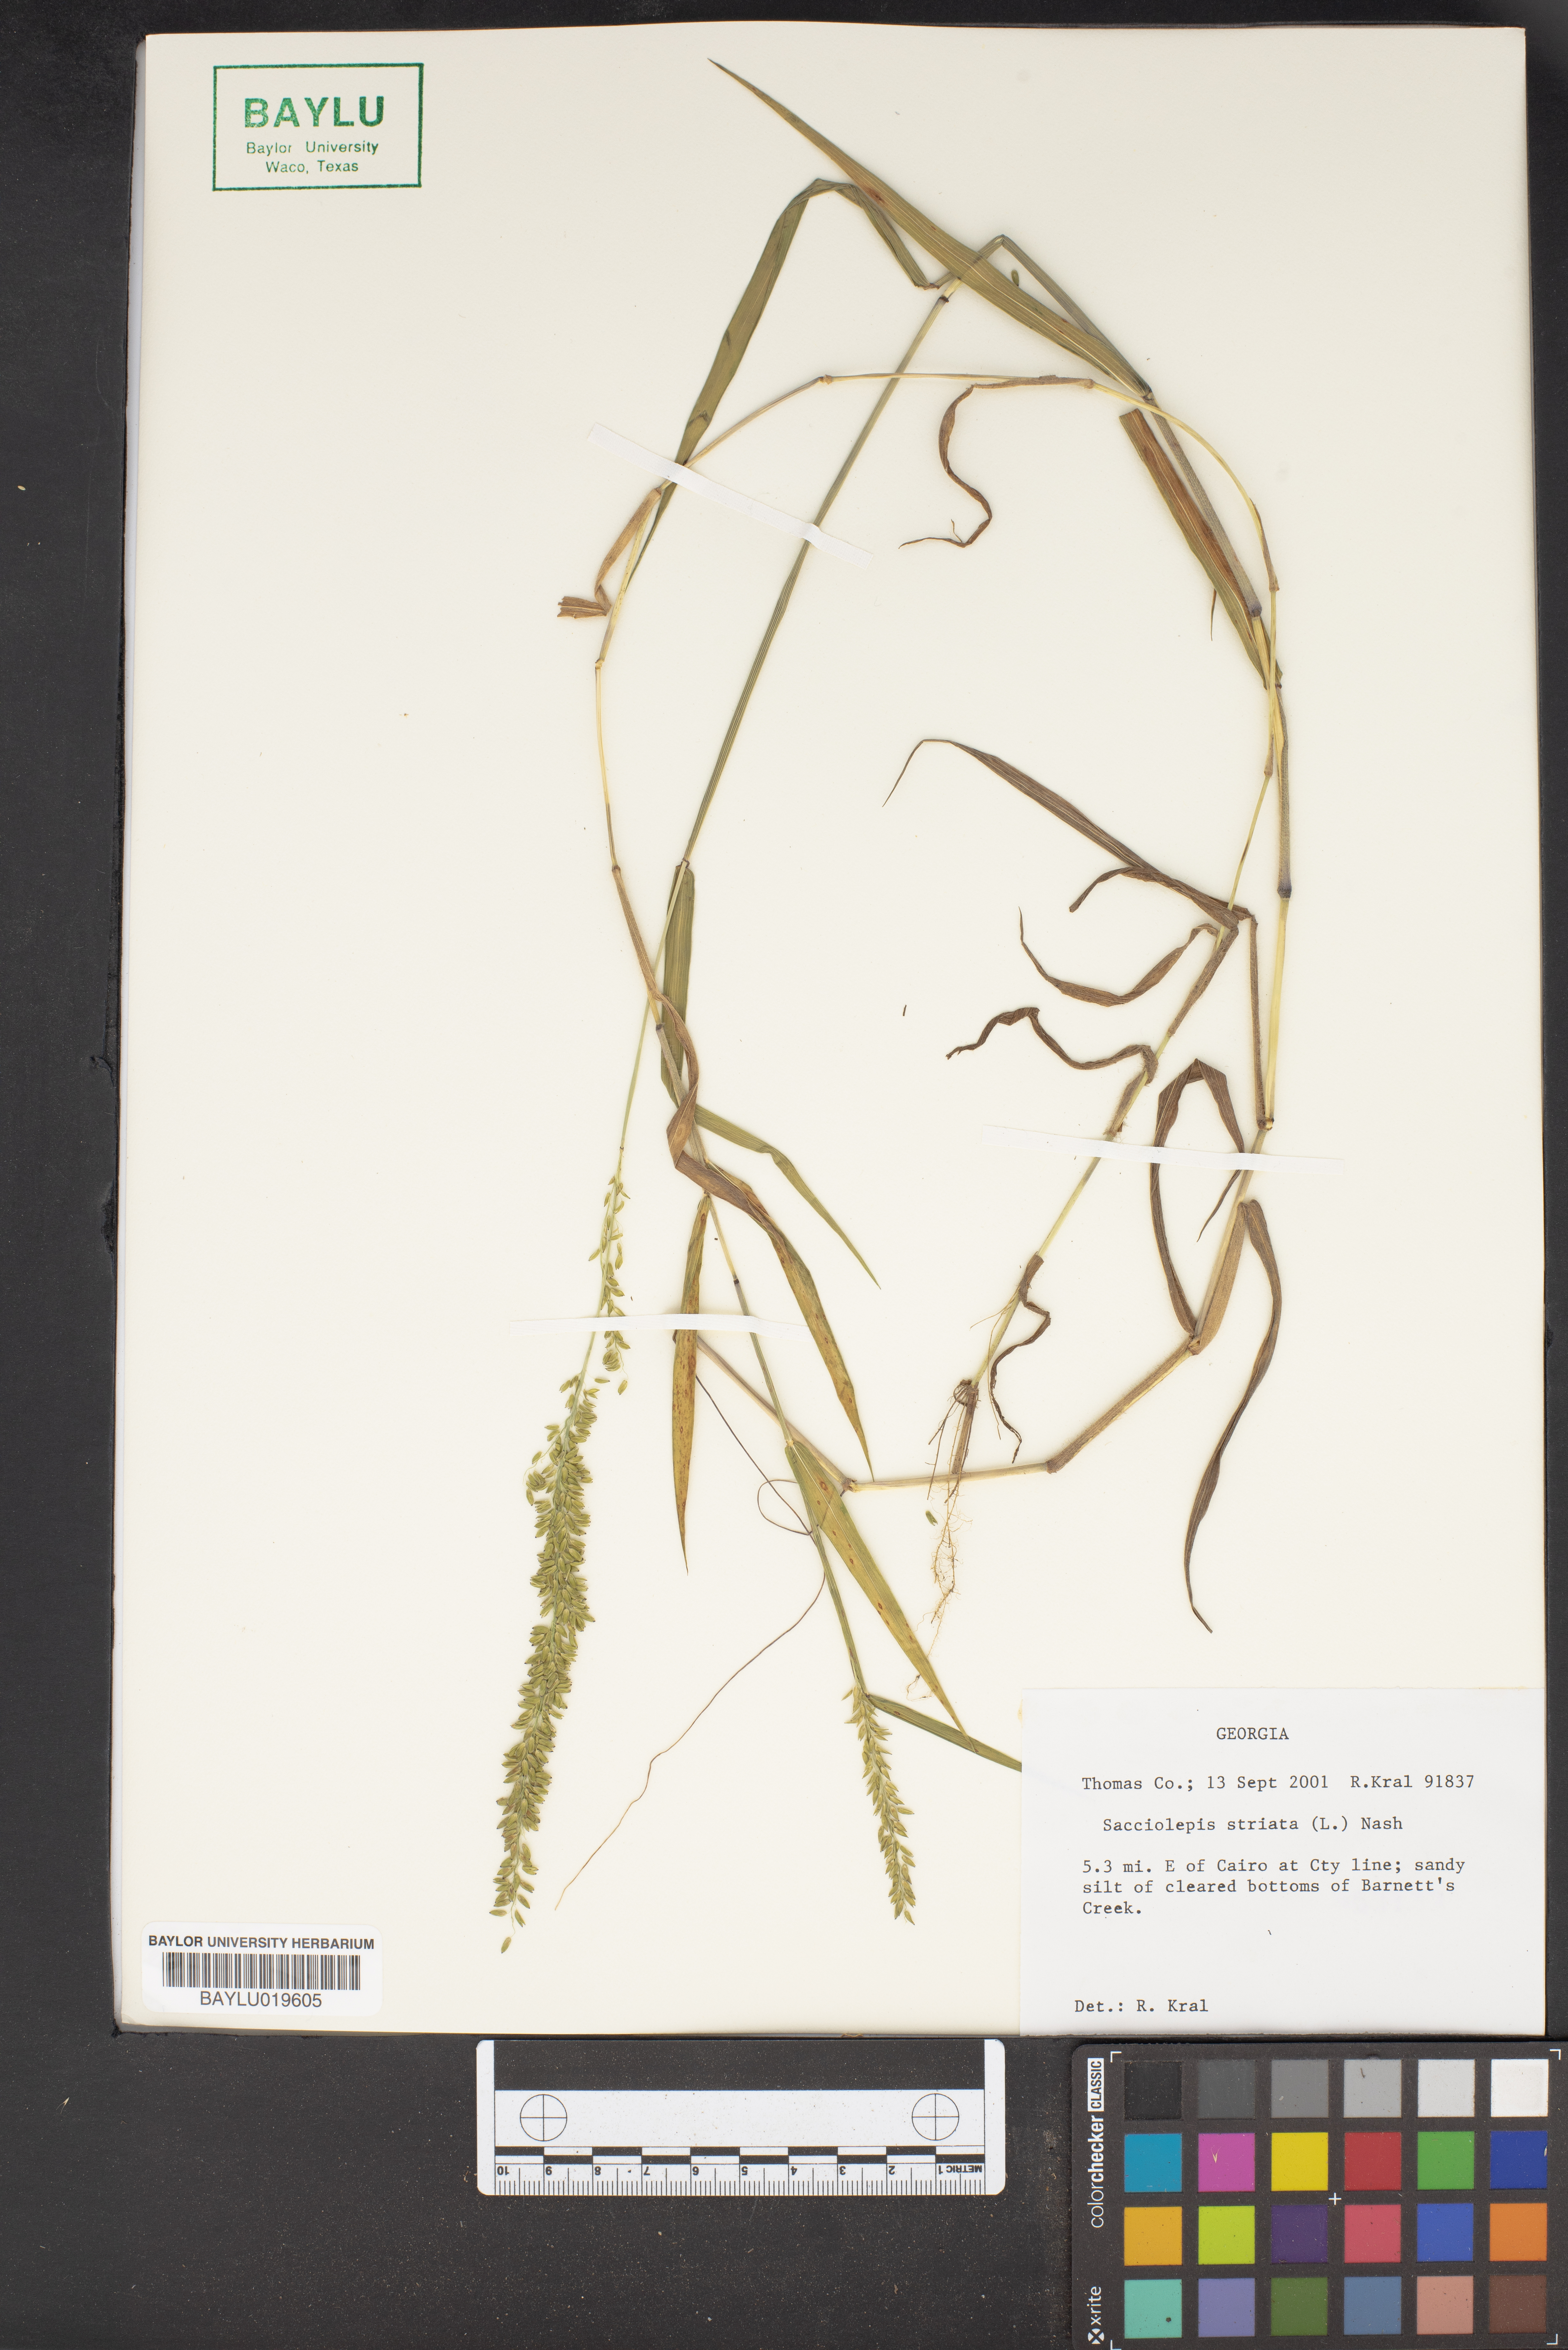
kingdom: Plantae
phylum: Tracheophyta
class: Liliopsida
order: Poales
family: Poaceae
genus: Sacciolepis
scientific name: Sacciolepis striata
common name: American cupscale
